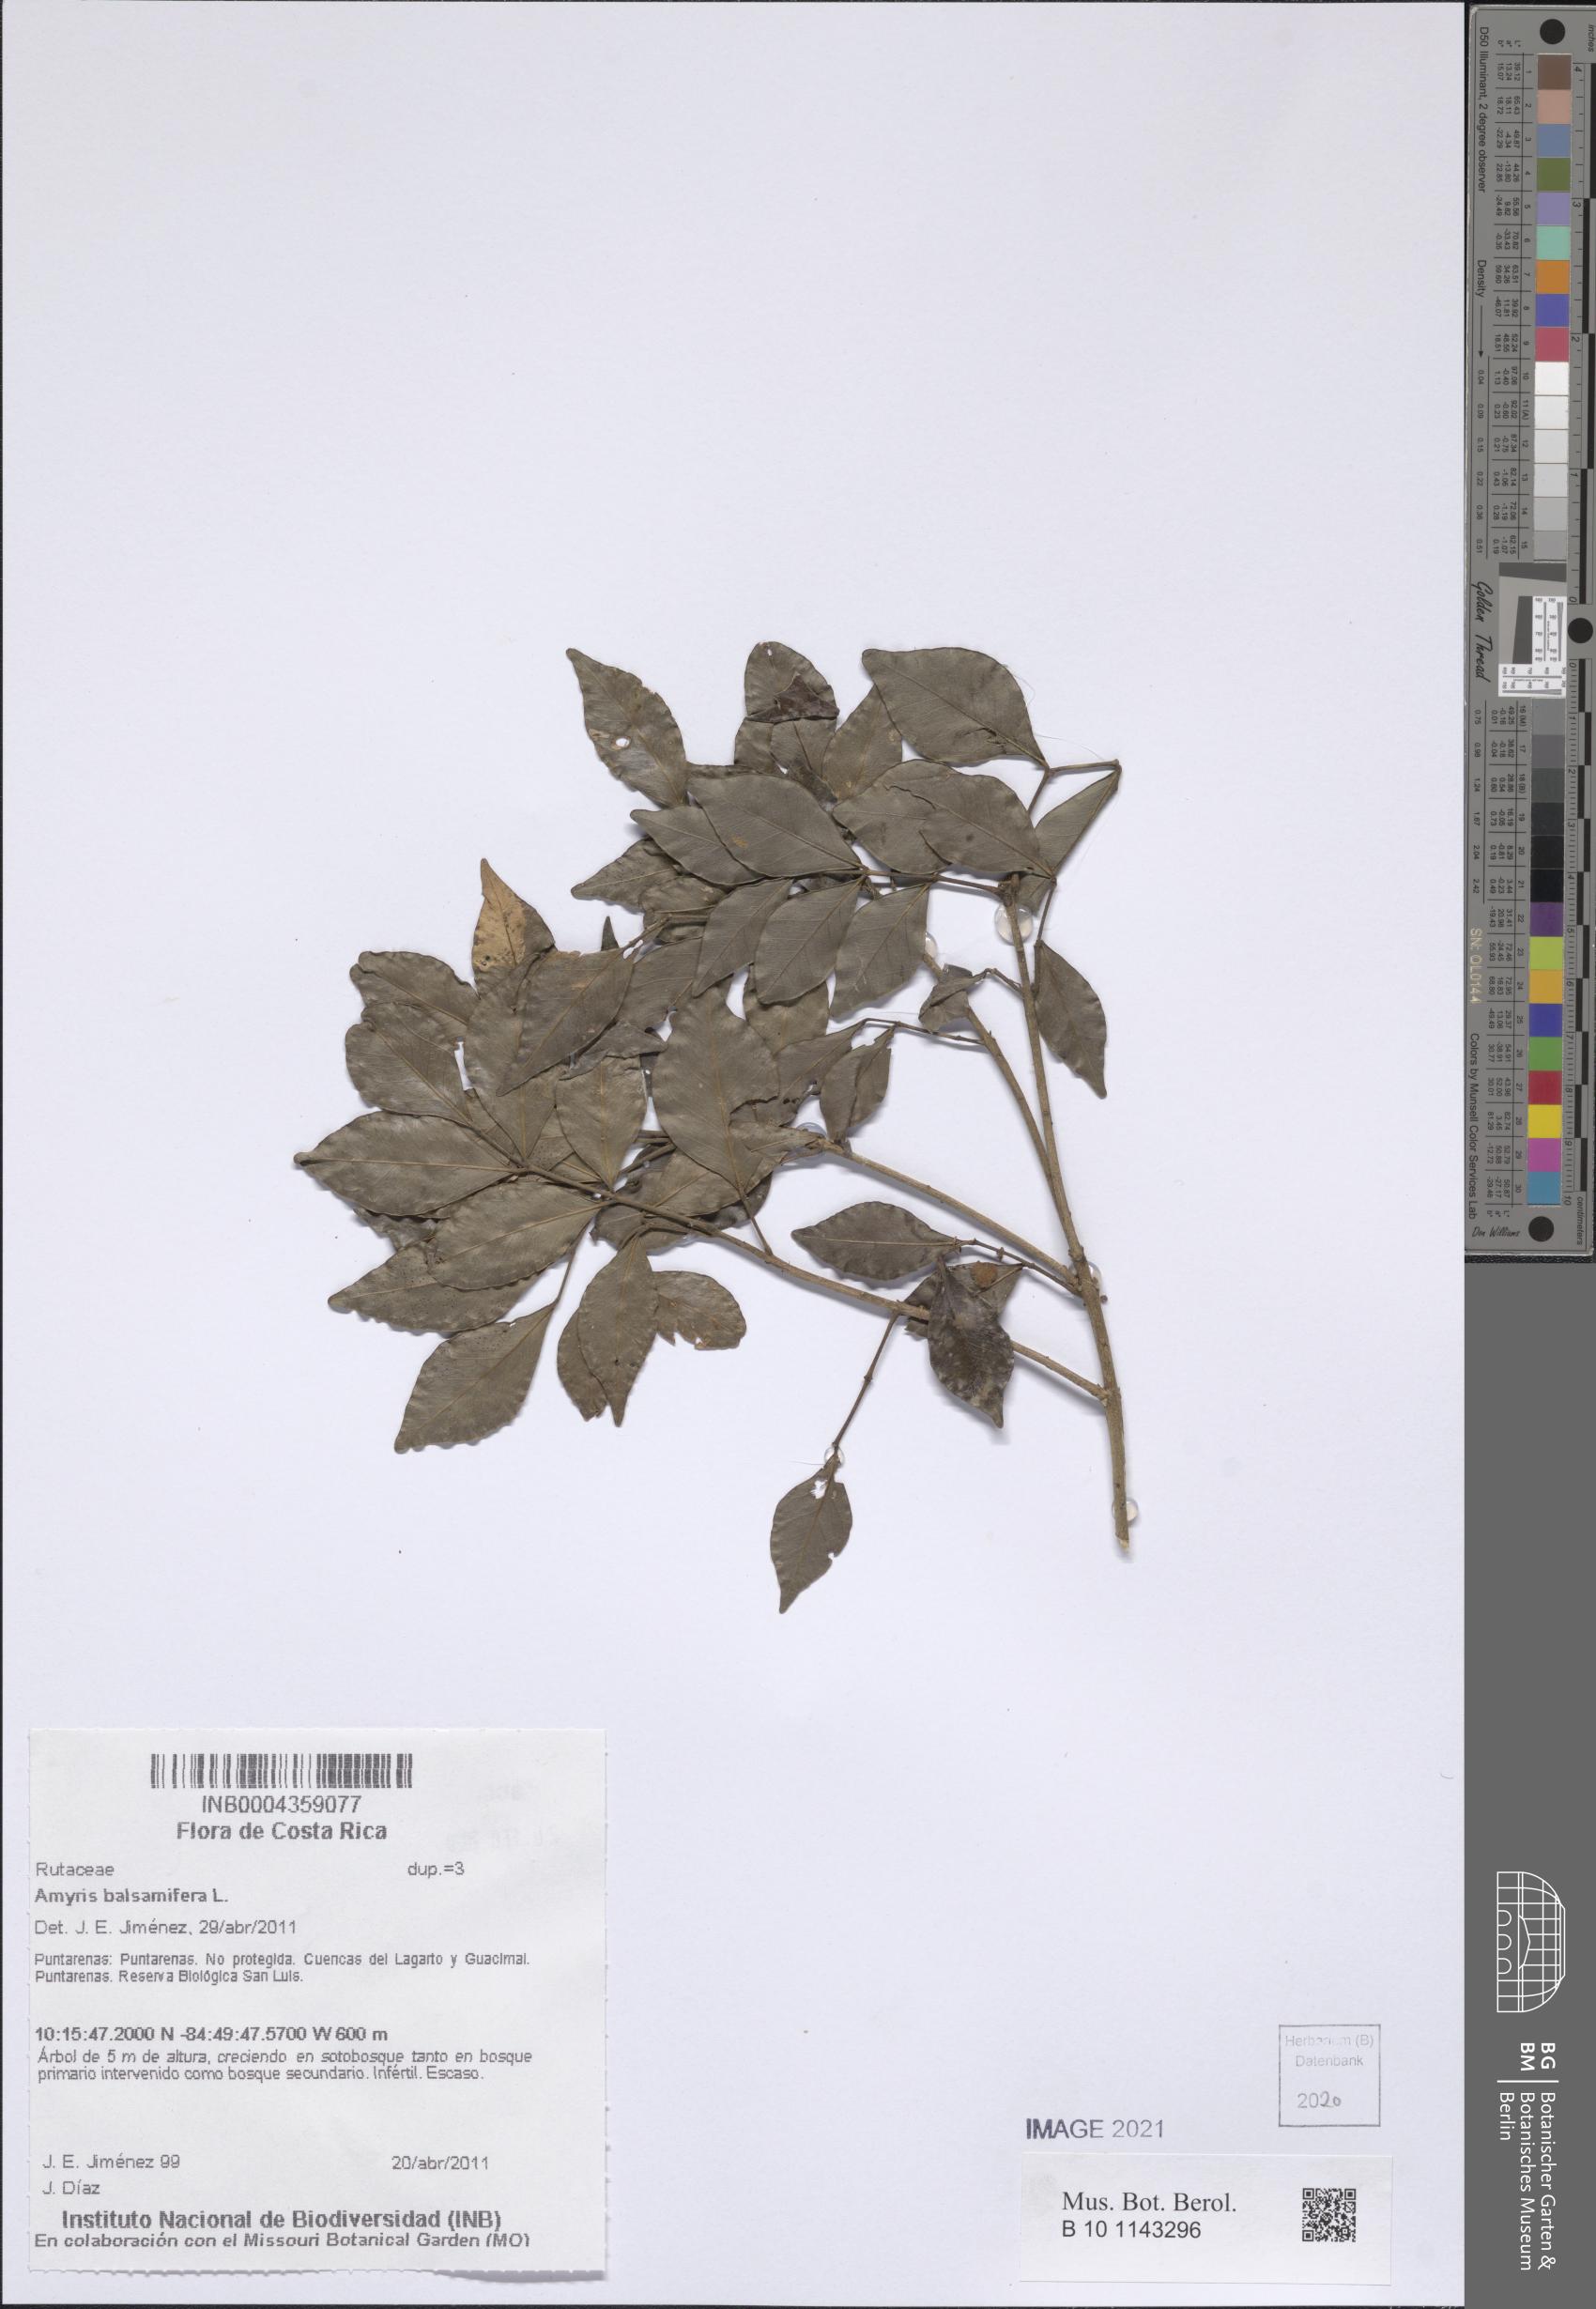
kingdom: Plantae
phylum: Tracheophyta
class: Magnoliopsida
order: Sapindales
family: Rutaceae
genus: Amyris
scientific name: Amyris balsamifera
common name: Balsam amyris
